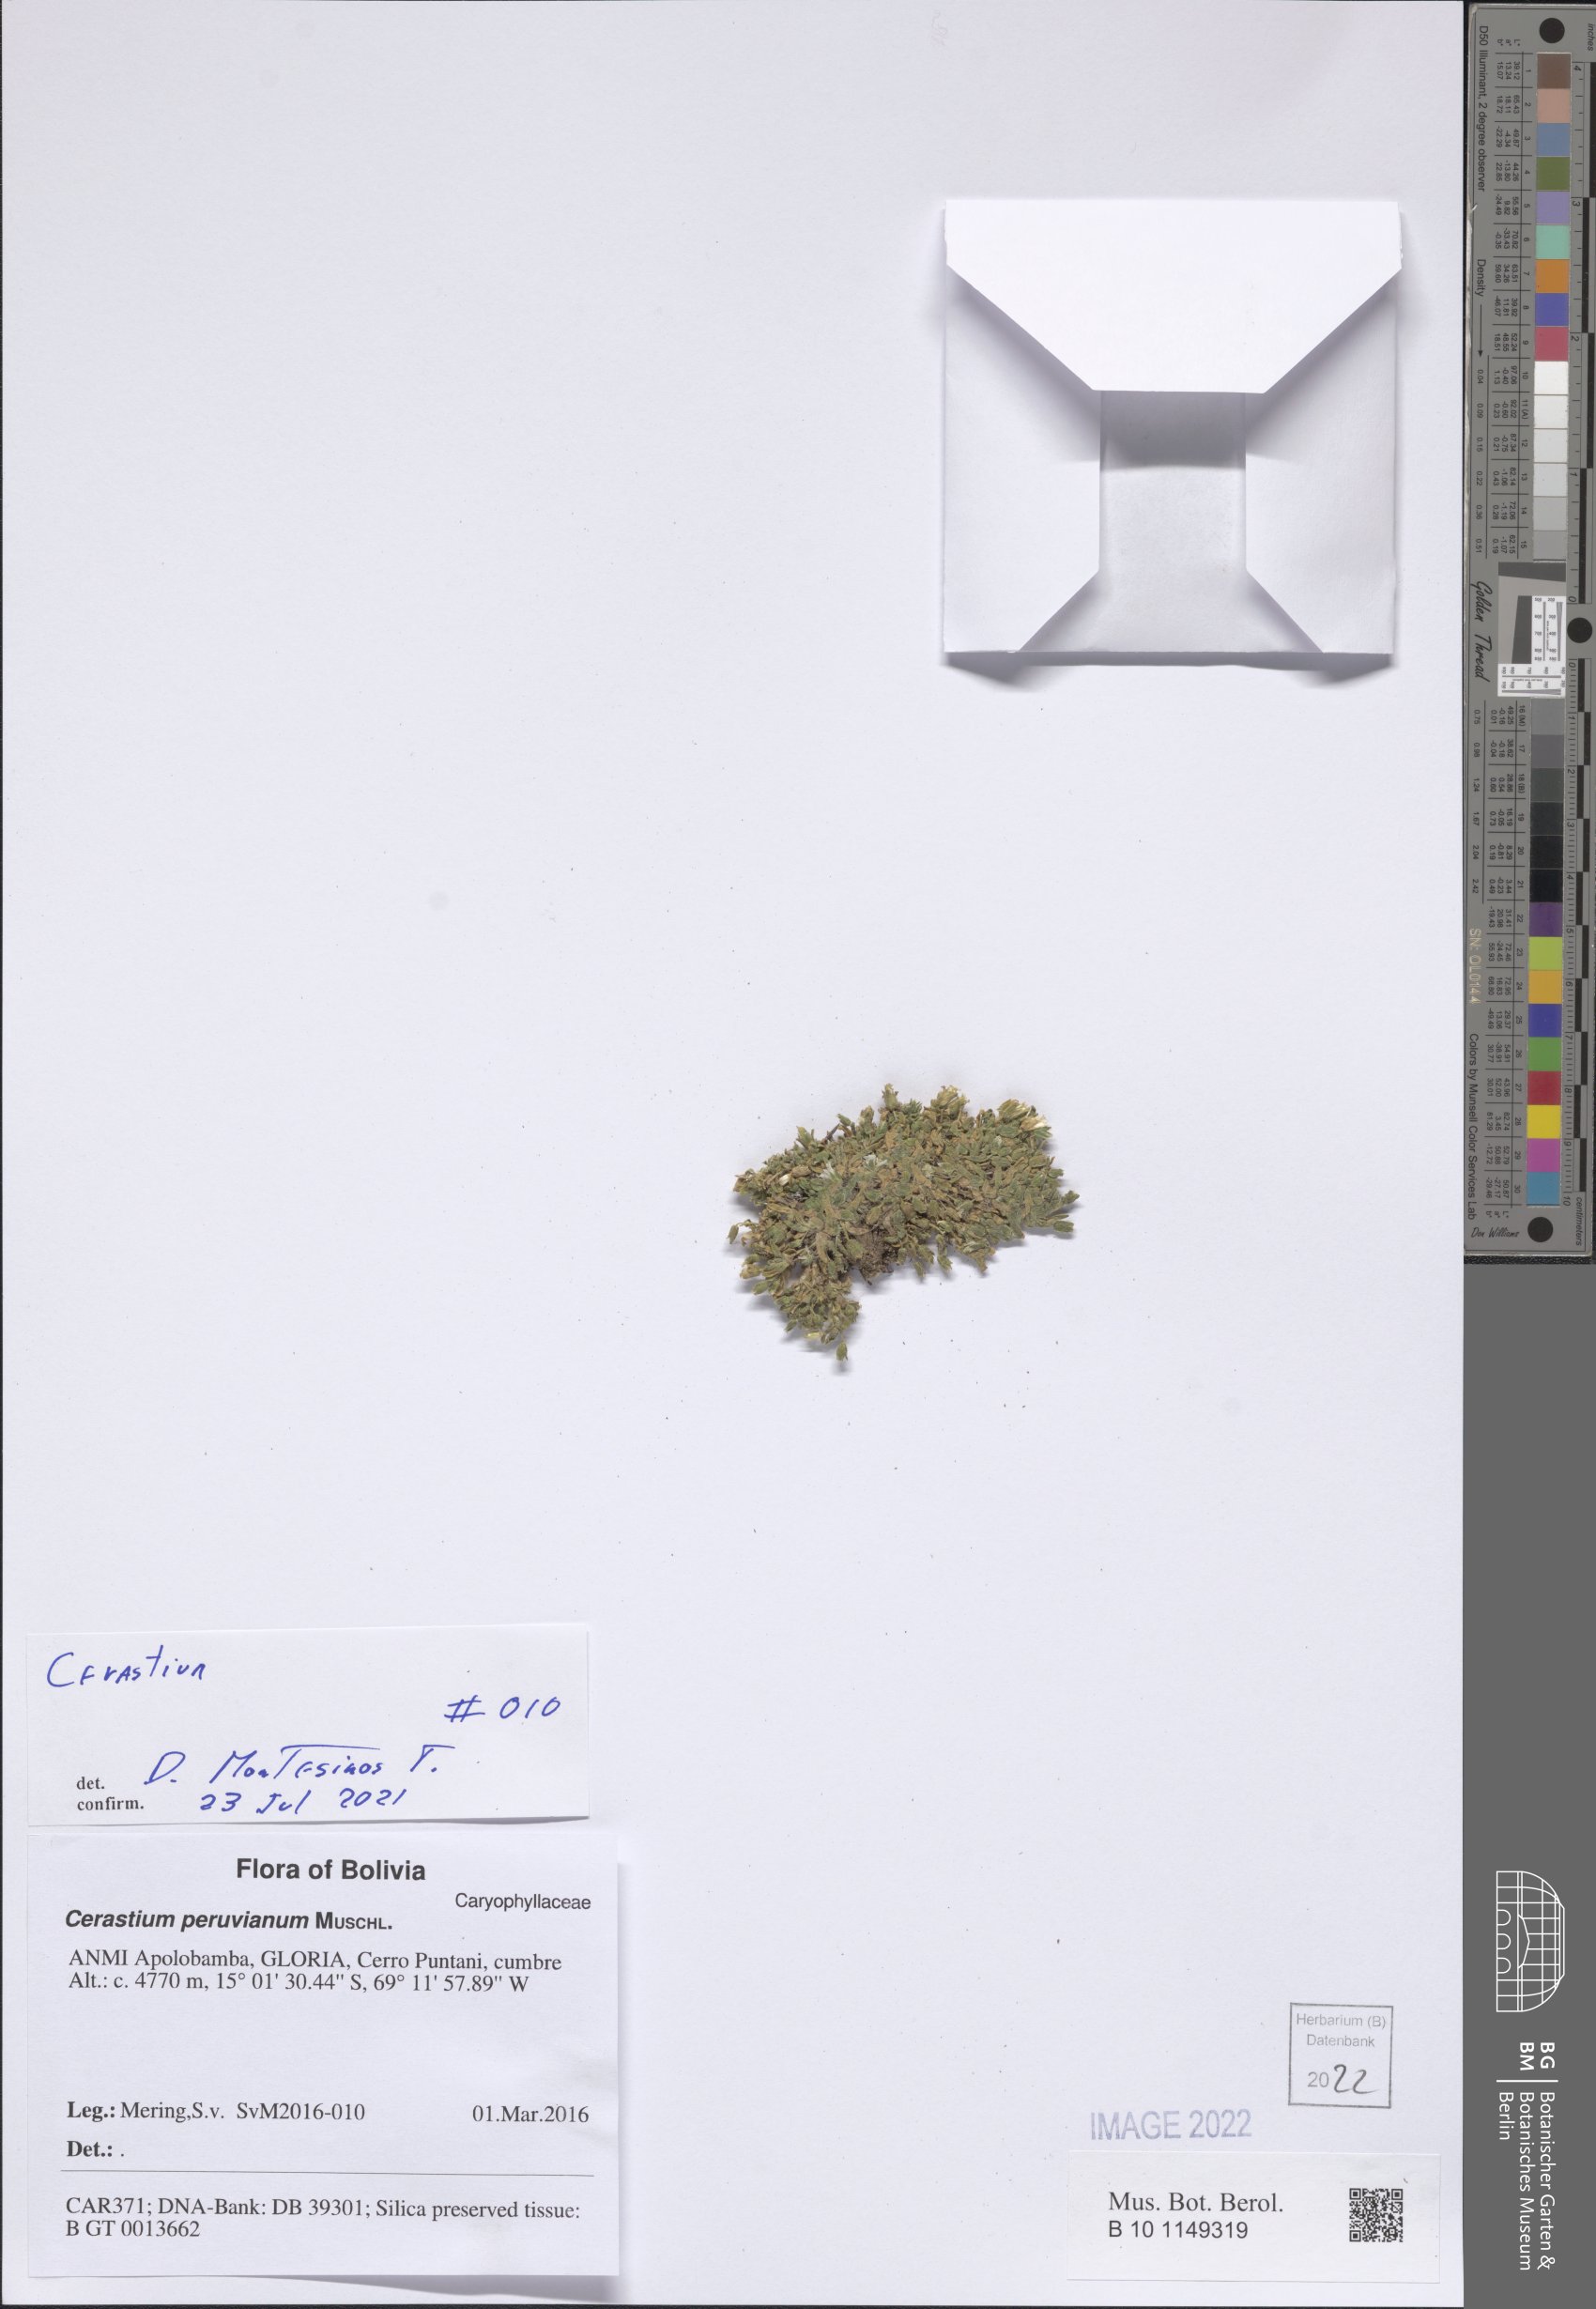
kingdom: Plantae
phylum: Tracheophyta
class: Magnoliopsida
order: Caryophyllales
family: Caryophyllaceae
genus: Cerastium
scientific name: Cerastium
